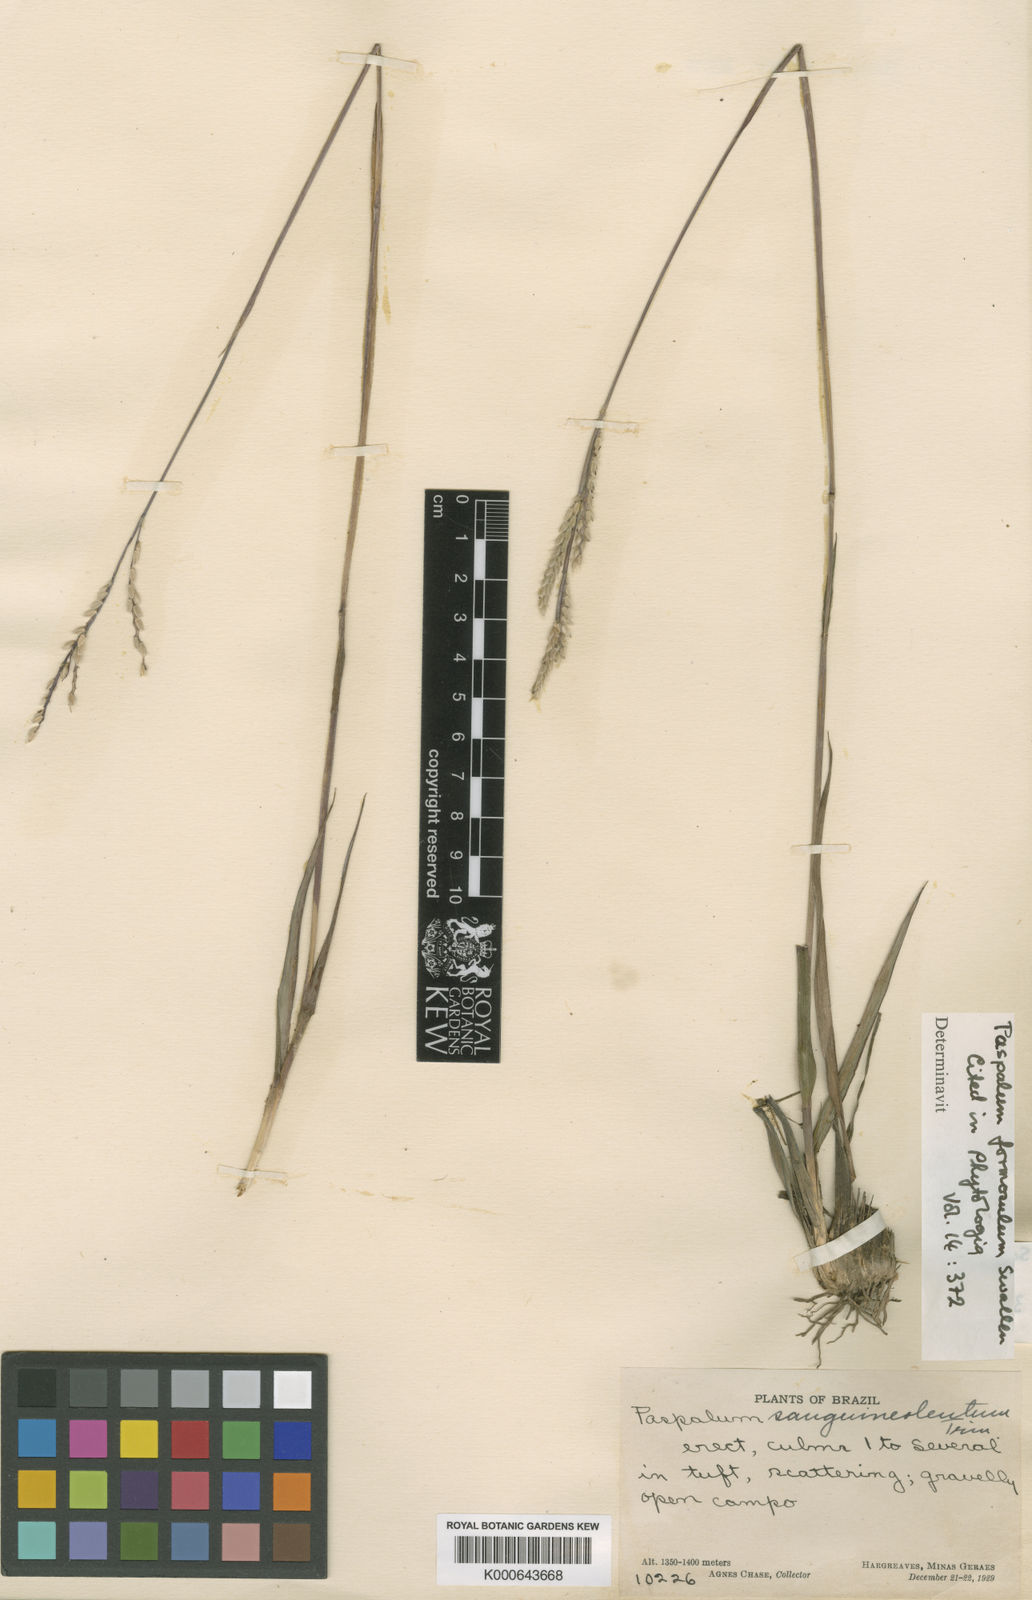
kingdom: Plantae
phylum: Tracheophyta
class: Liliopsida
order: Poales
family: Poaceae
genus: Paspalum
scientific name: Paspalum erianthum
